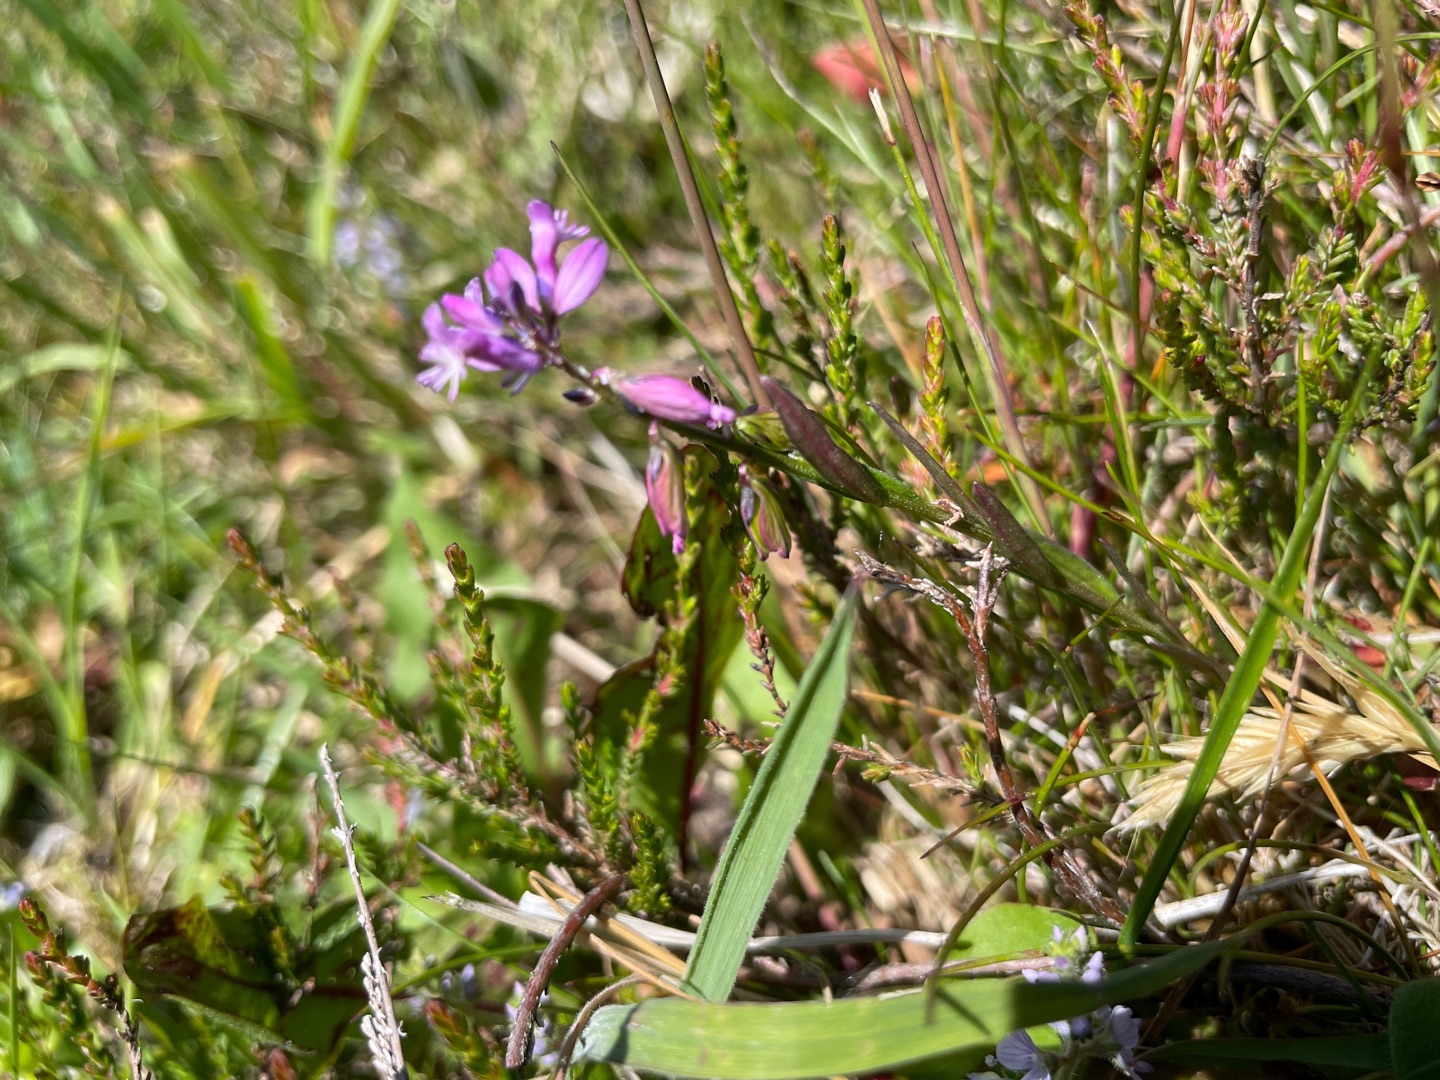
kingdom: Plantae
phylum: Tracheophyta
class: Magnoliopsida
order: Fabales
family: Polygalaceae
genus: Polygala
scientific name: Polygala vulgaris
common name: Almindelig mælkeurt
